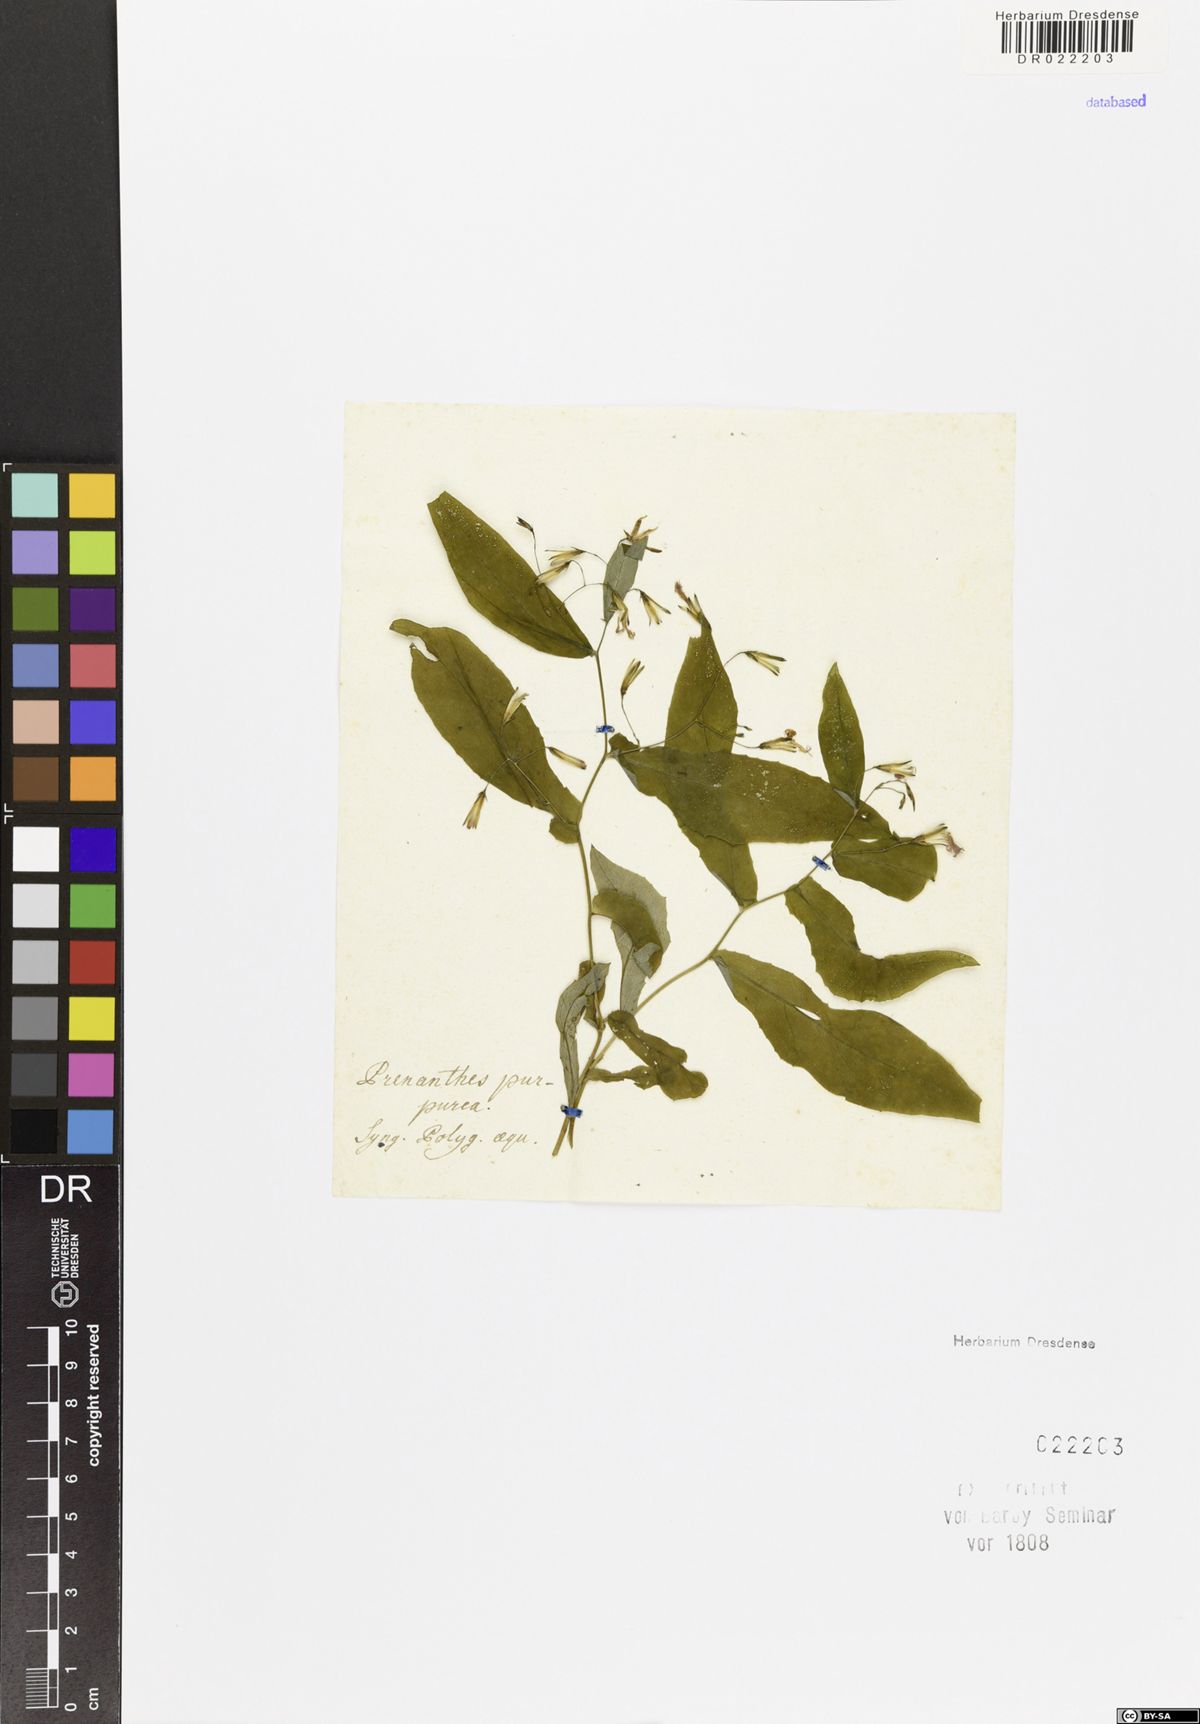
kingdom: Plantae
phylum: Tracheophyta
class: Magnoliopsida
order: Asterales
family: Asteraceae
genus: Prenanthes
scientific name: Prenanthes purpurea
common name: Purple lettuce
